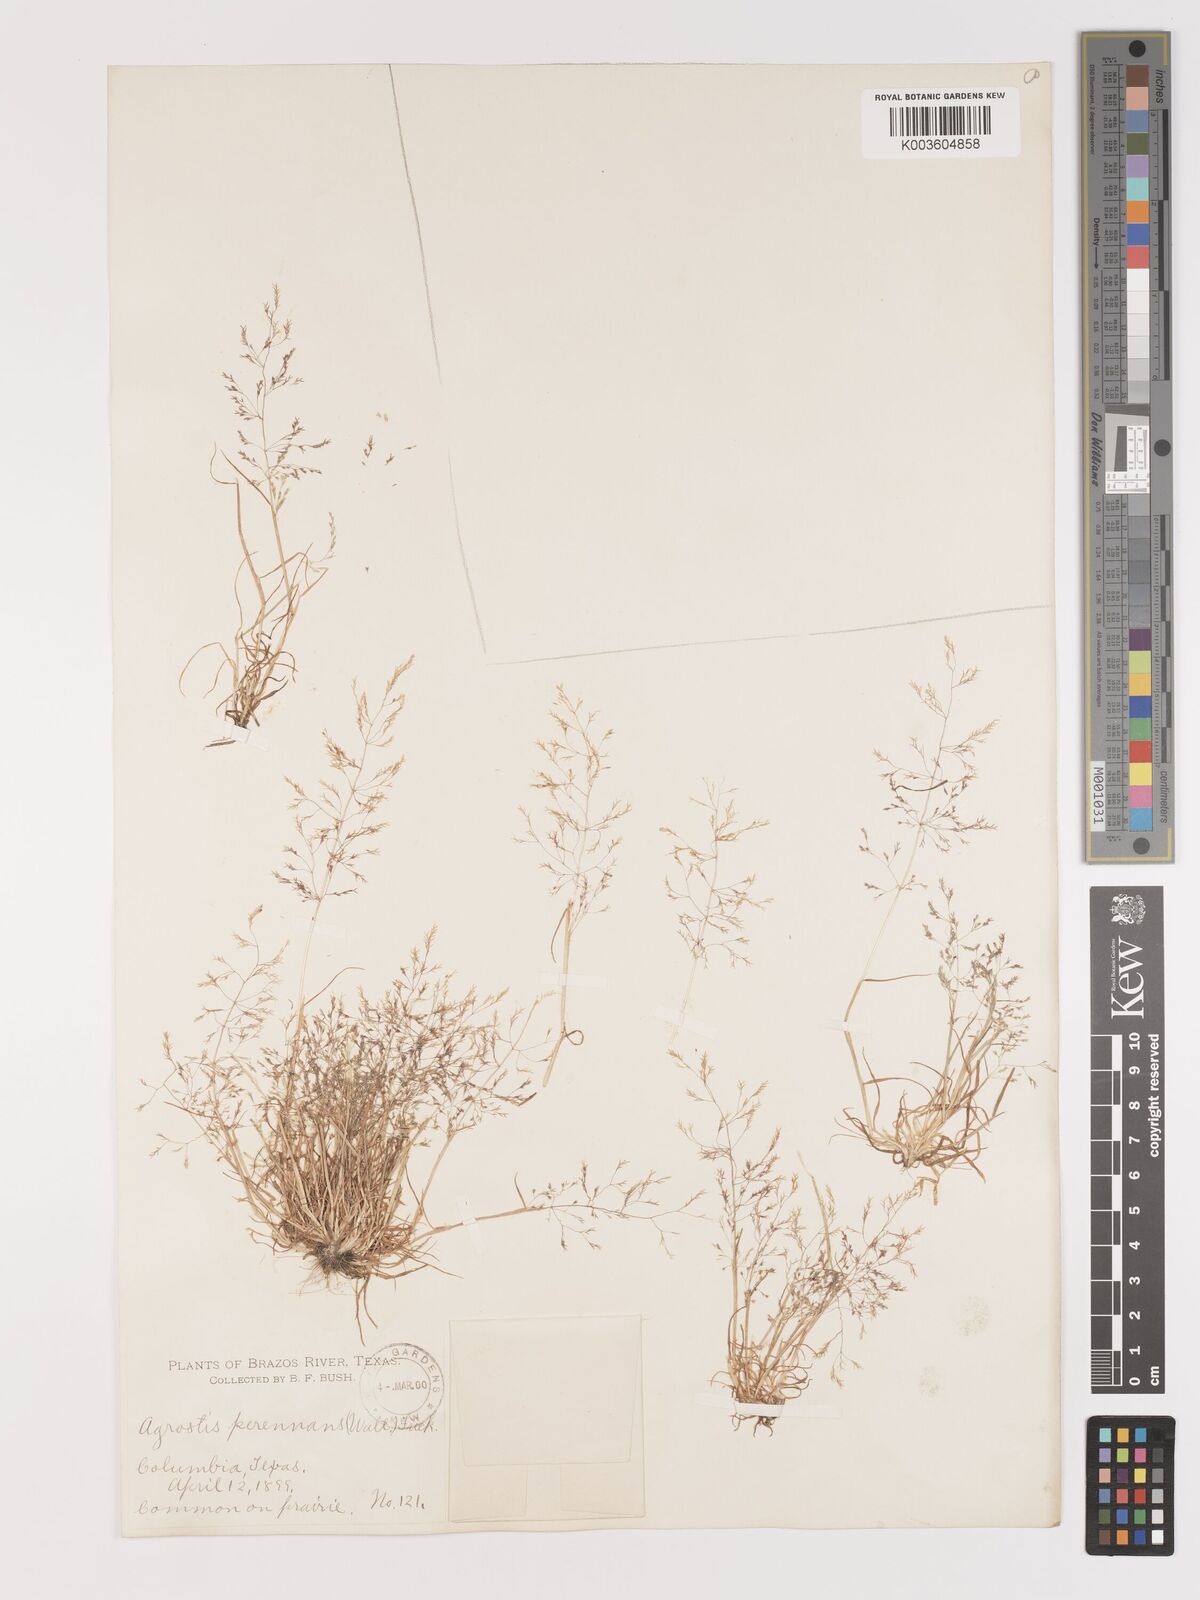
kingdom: Plantae
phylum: Tracheophyta
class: Liliopsida
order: Poales
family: Poaceae
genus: Agrostis
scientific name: Agrostis
